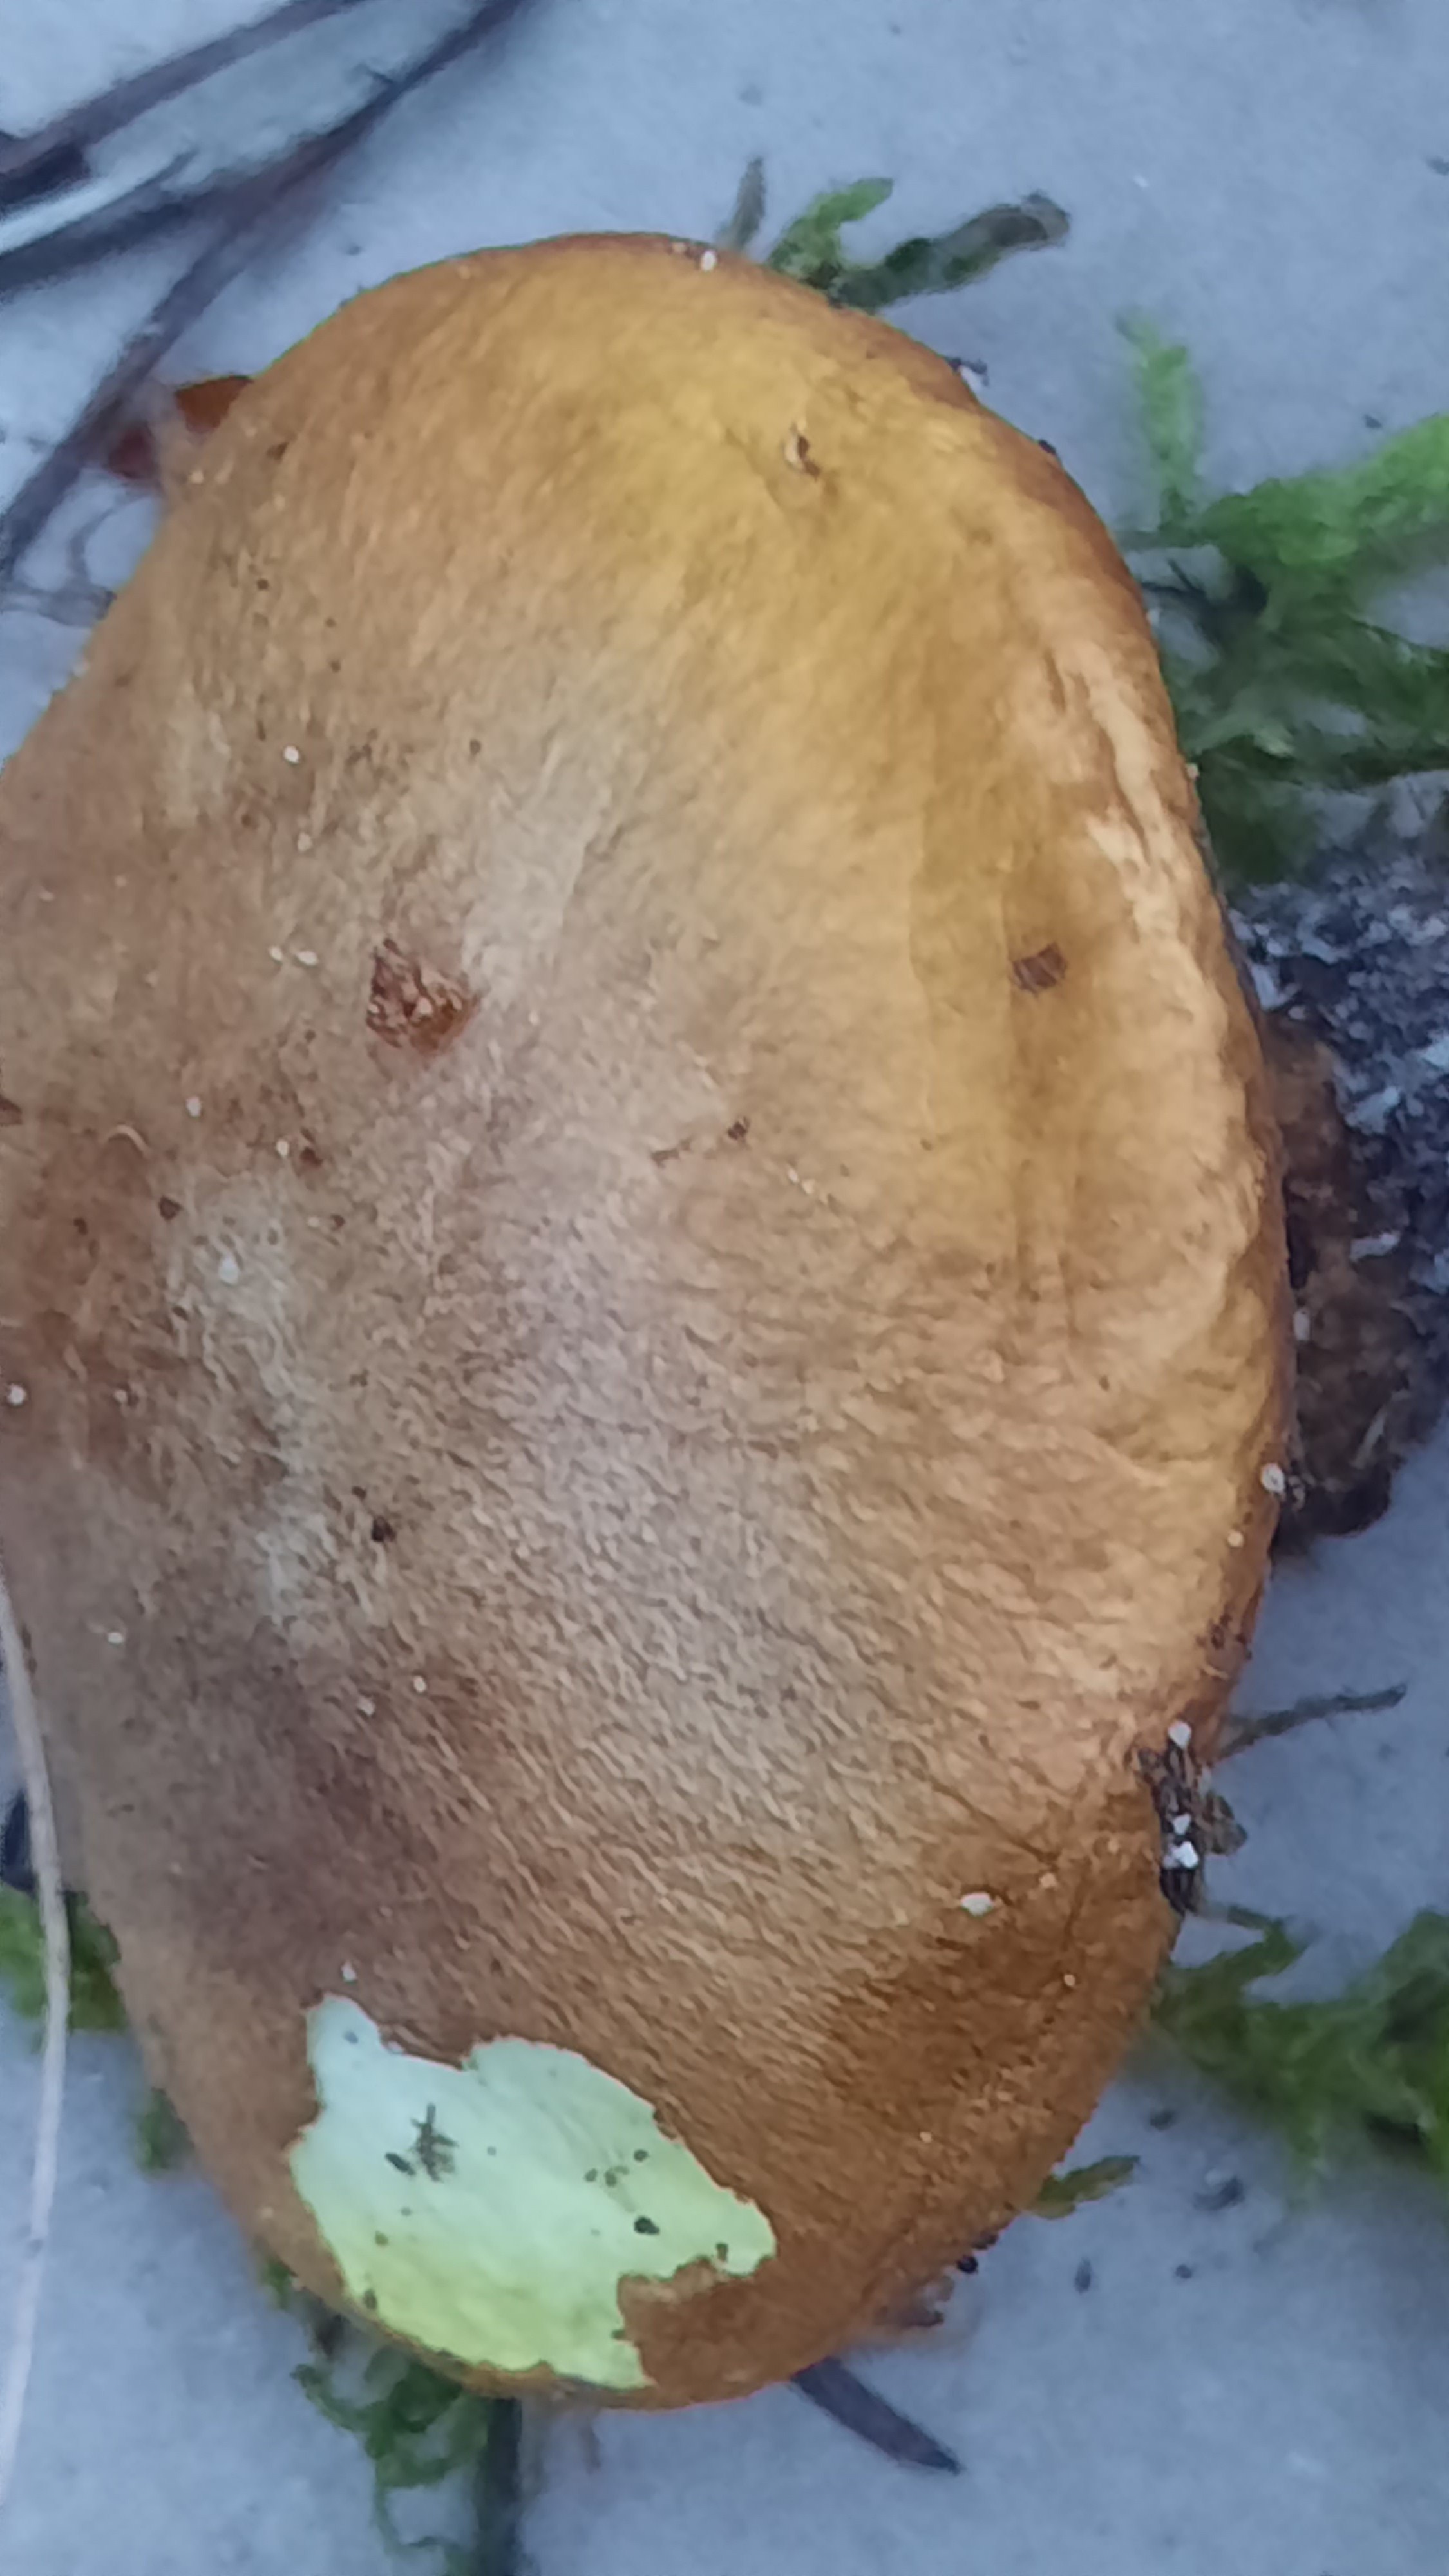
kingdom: Fungi
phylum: Basidiomycota
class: Agaricomycetes
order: Boletales
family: Suillaceae
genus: Suillus
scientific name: Suillus luteus
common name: brungul slimrørhat
